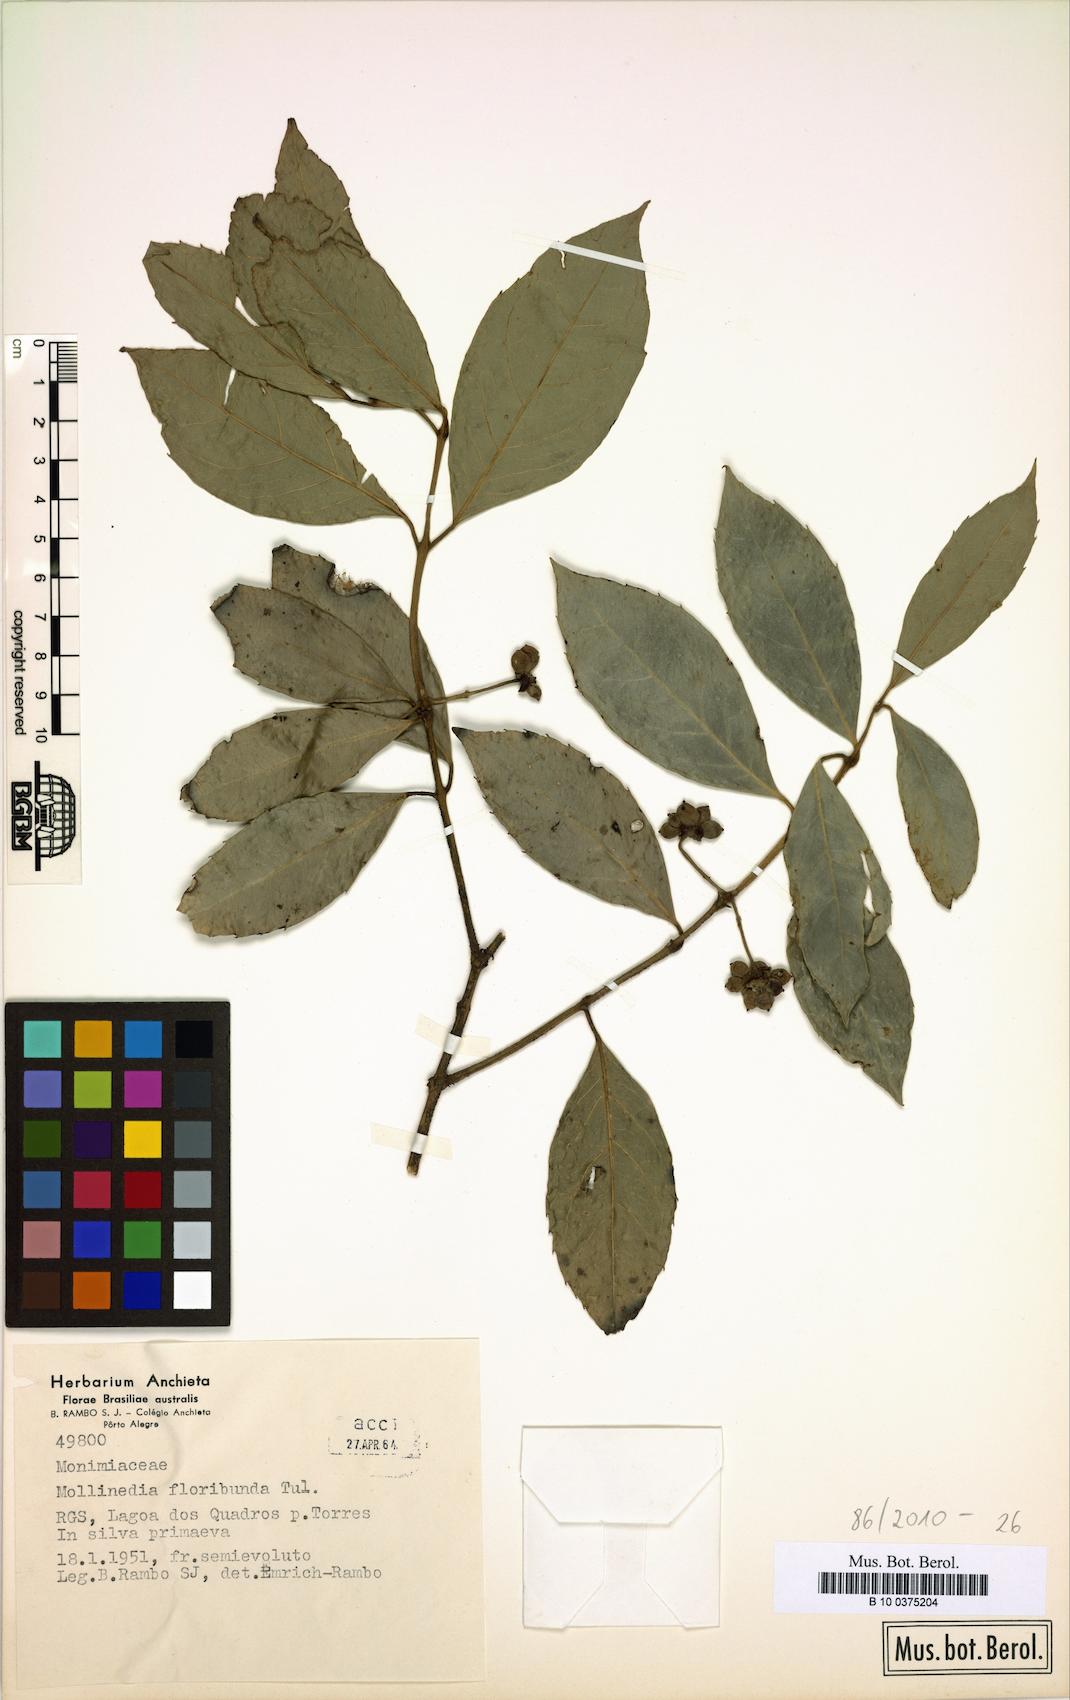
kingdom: Plantae
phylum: Tracheophyta
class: Magnoliopsida
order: Laurales
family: Monimiaceae
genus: Mollinedia
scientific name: Mollinedia umbellata
